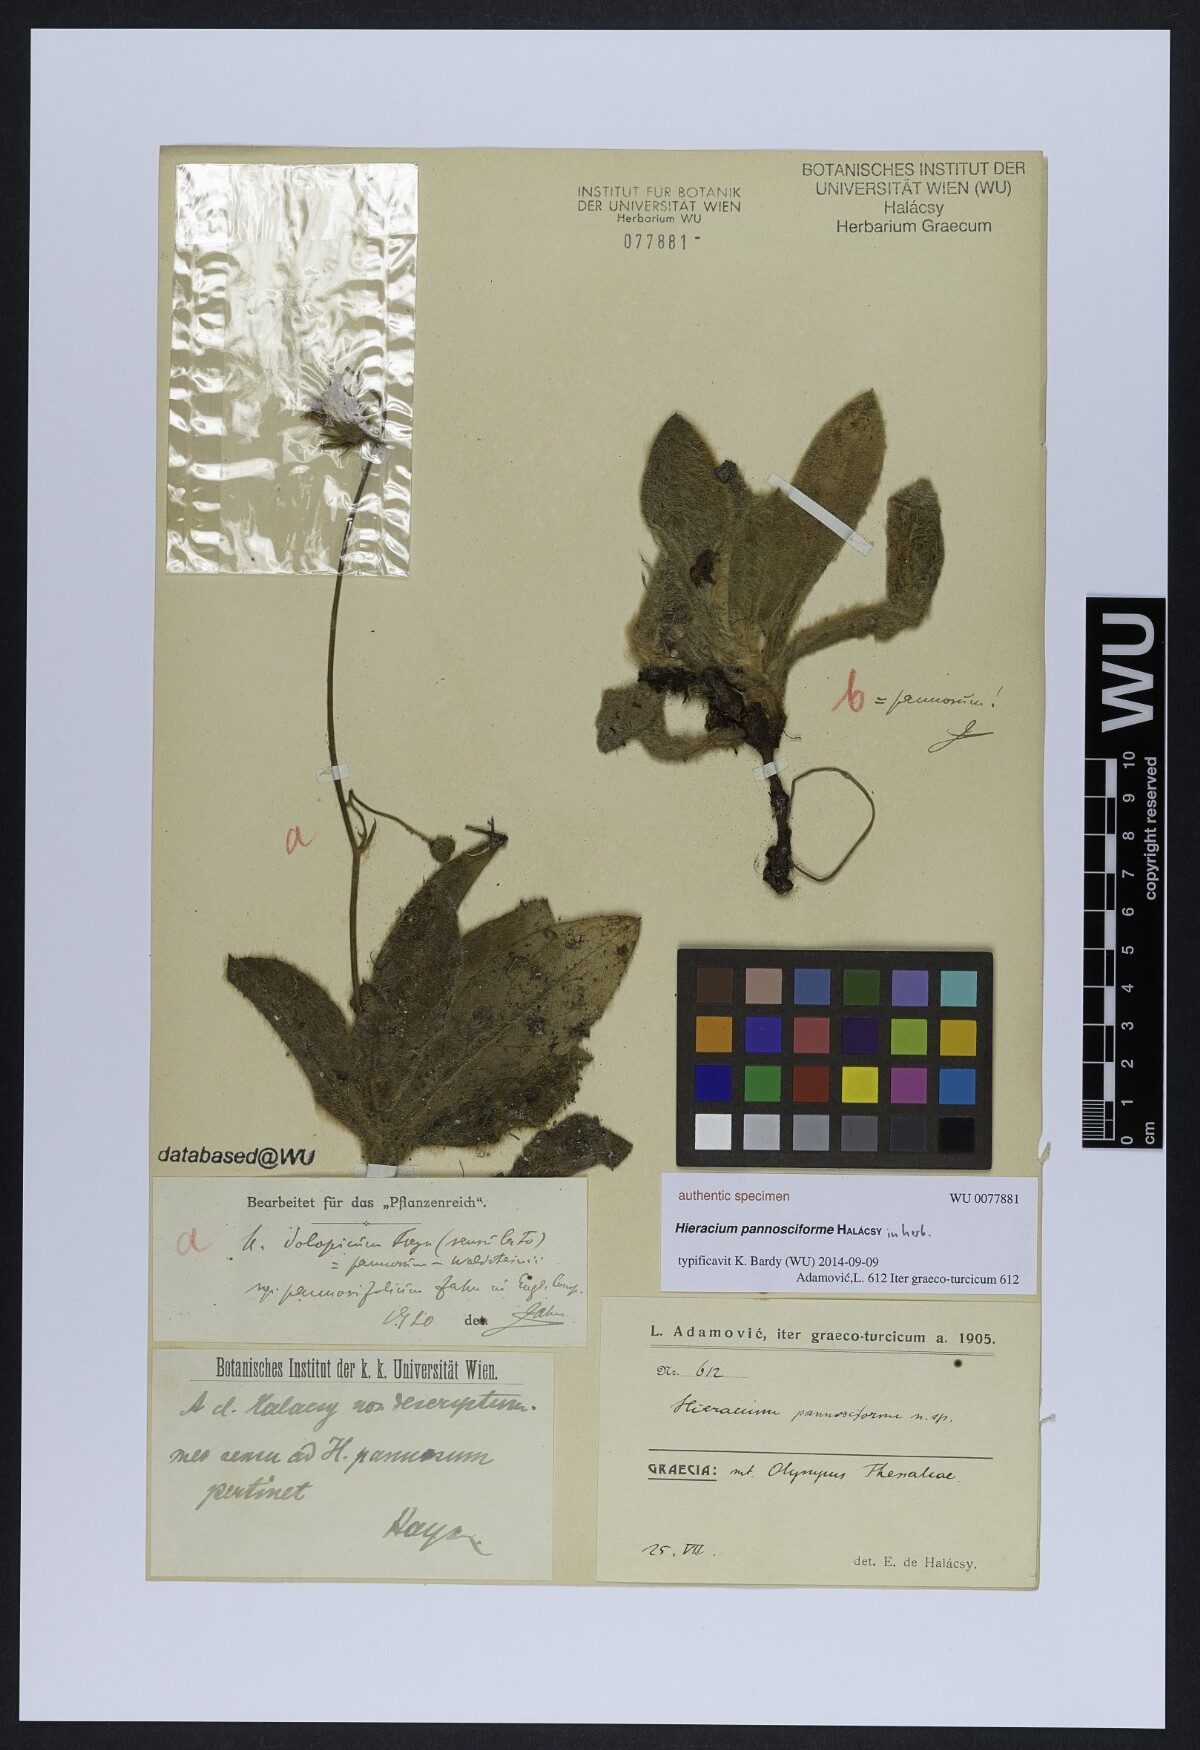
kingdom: Plantae
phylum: Tracheophyta
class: Magnoliopsida
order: Asterales
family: Asteraceae
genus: Hieracium
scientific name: Hieracium pannosum
